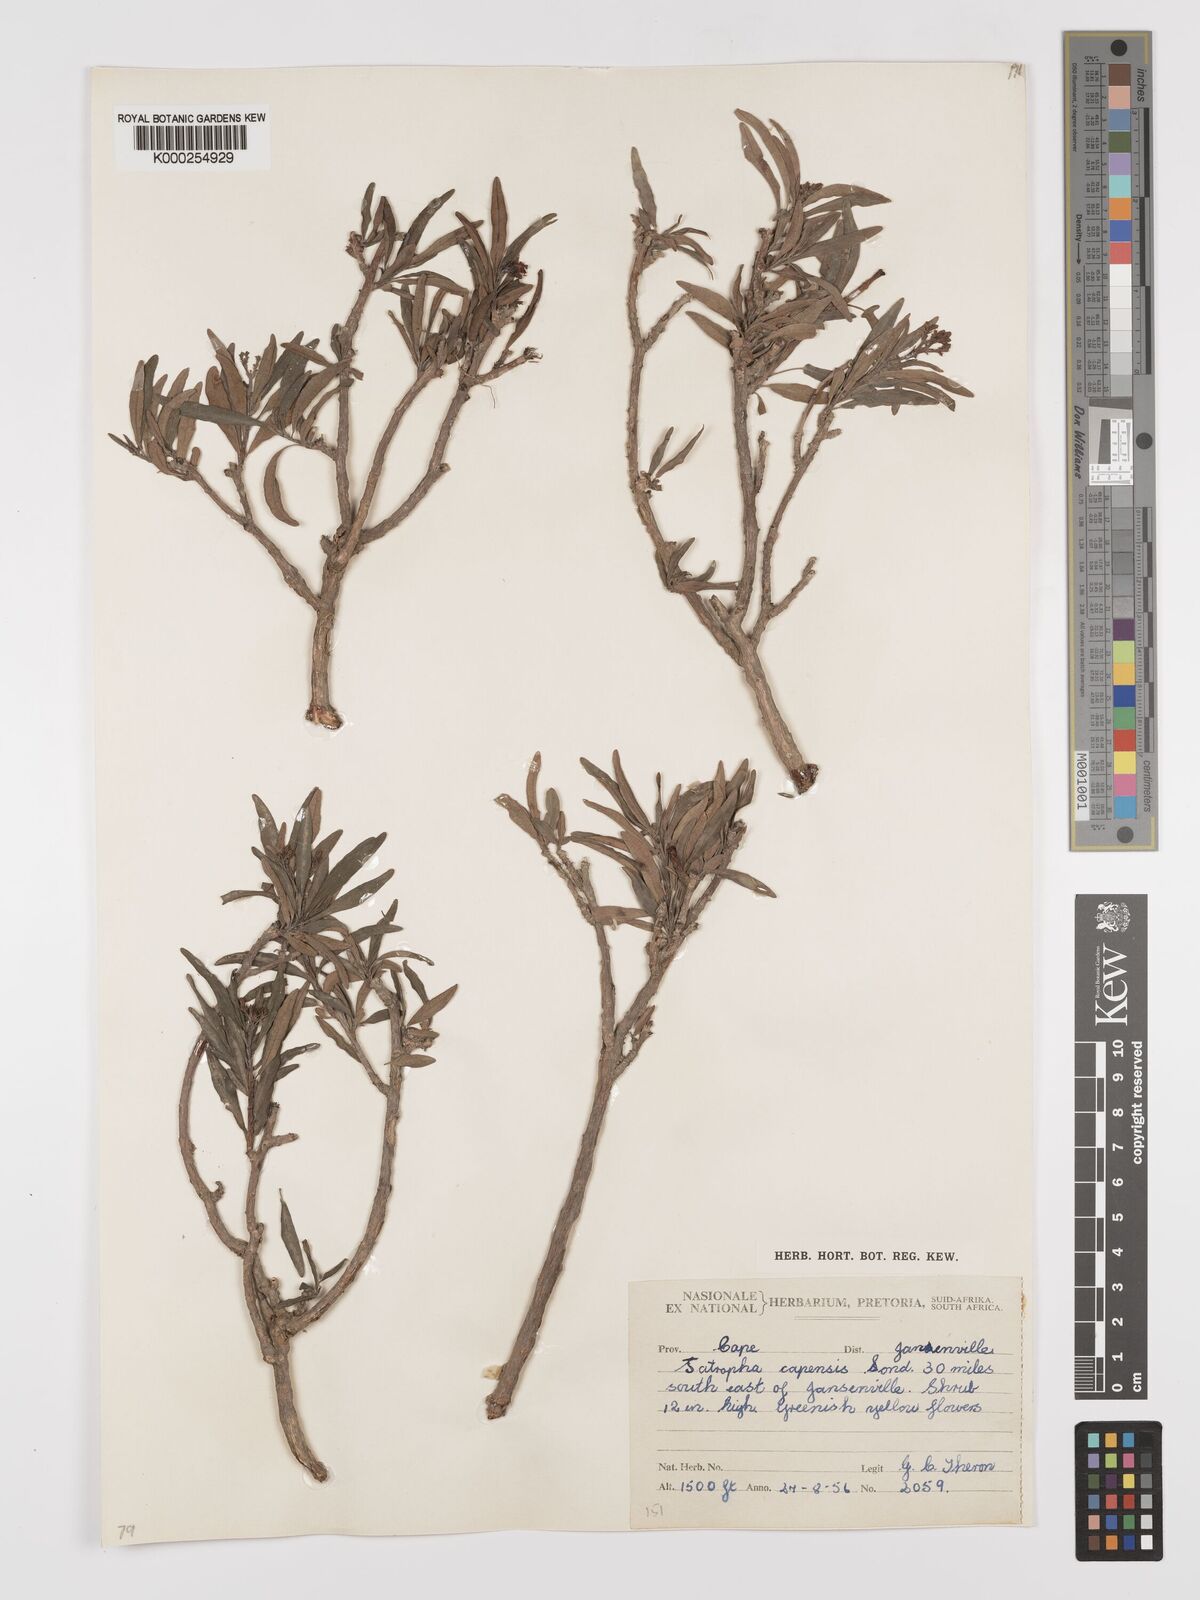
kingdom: Plantae
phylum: Tracheophyta
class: Magnoliopsida
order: Malpighiales
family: Euphorbiaceae
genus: Jatropha
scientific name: Jatropha capensis
